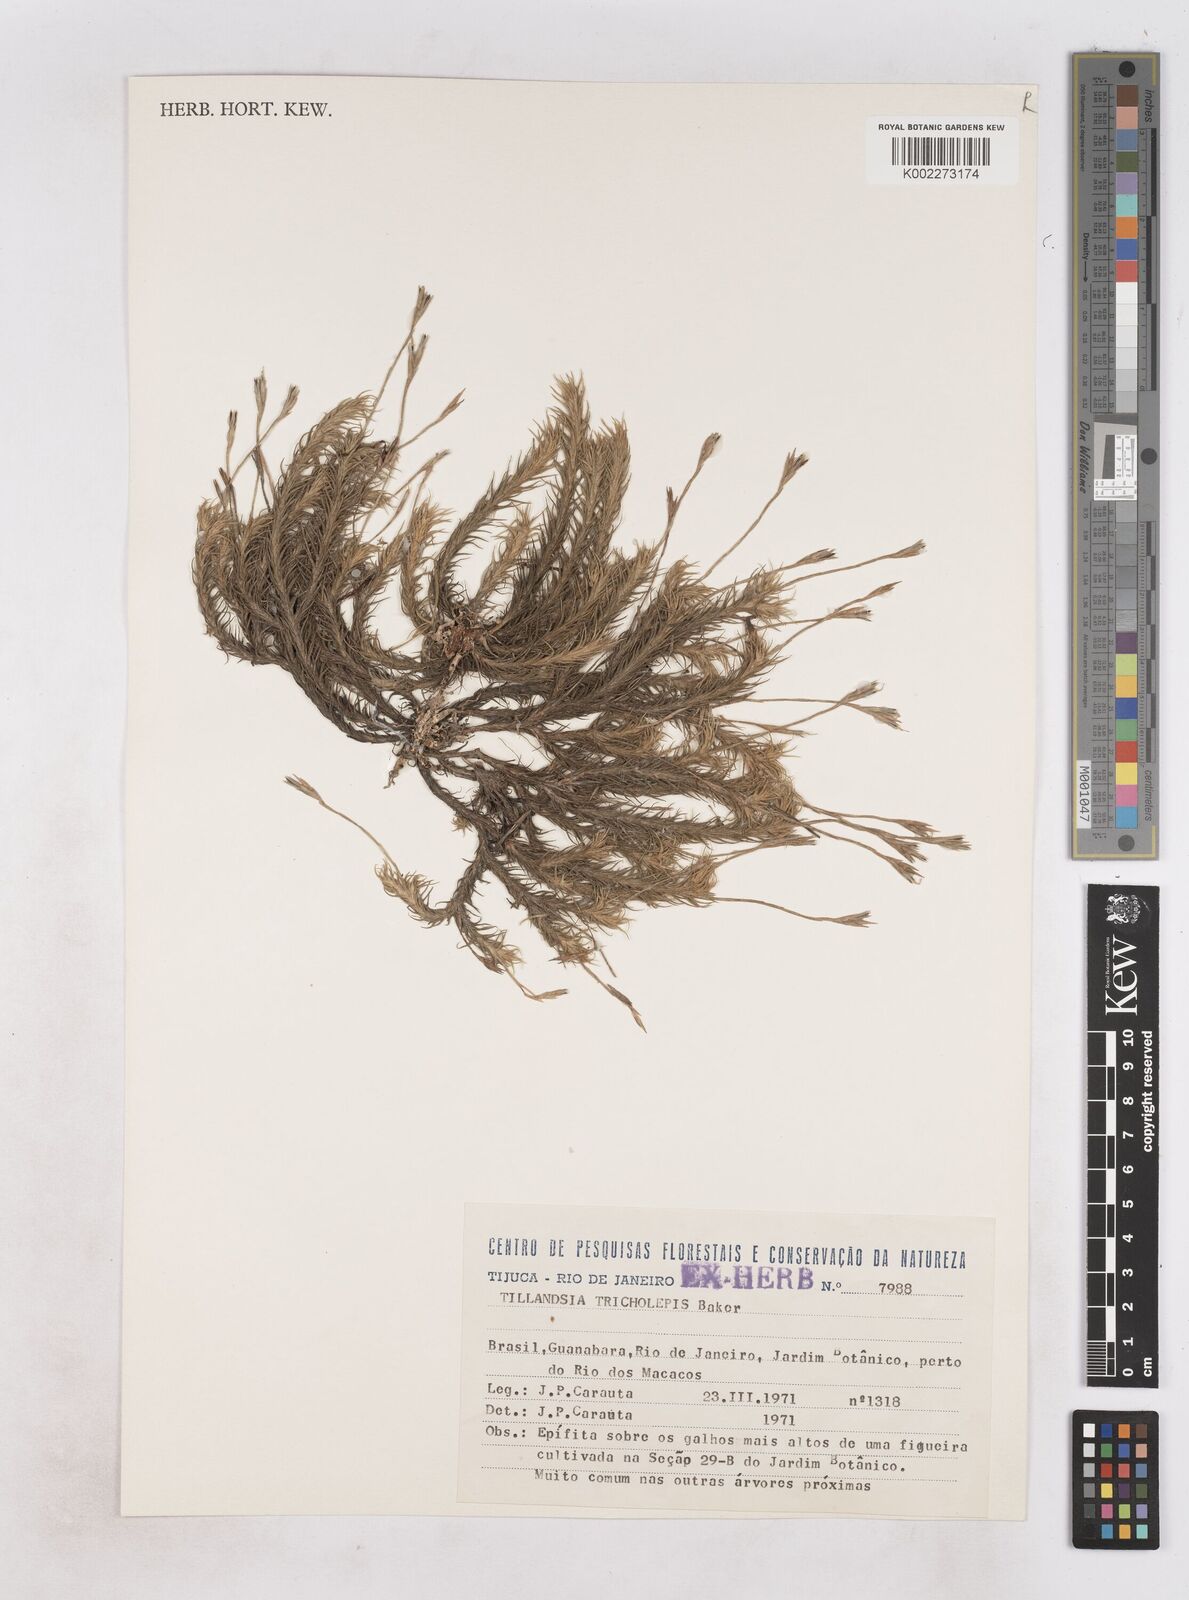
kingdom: Plantae
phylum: Tracheophyta
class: Liliopsida
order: Poales
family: Bromeliaceae
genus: Tillandsia
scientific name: Tillandsia tricholepis
